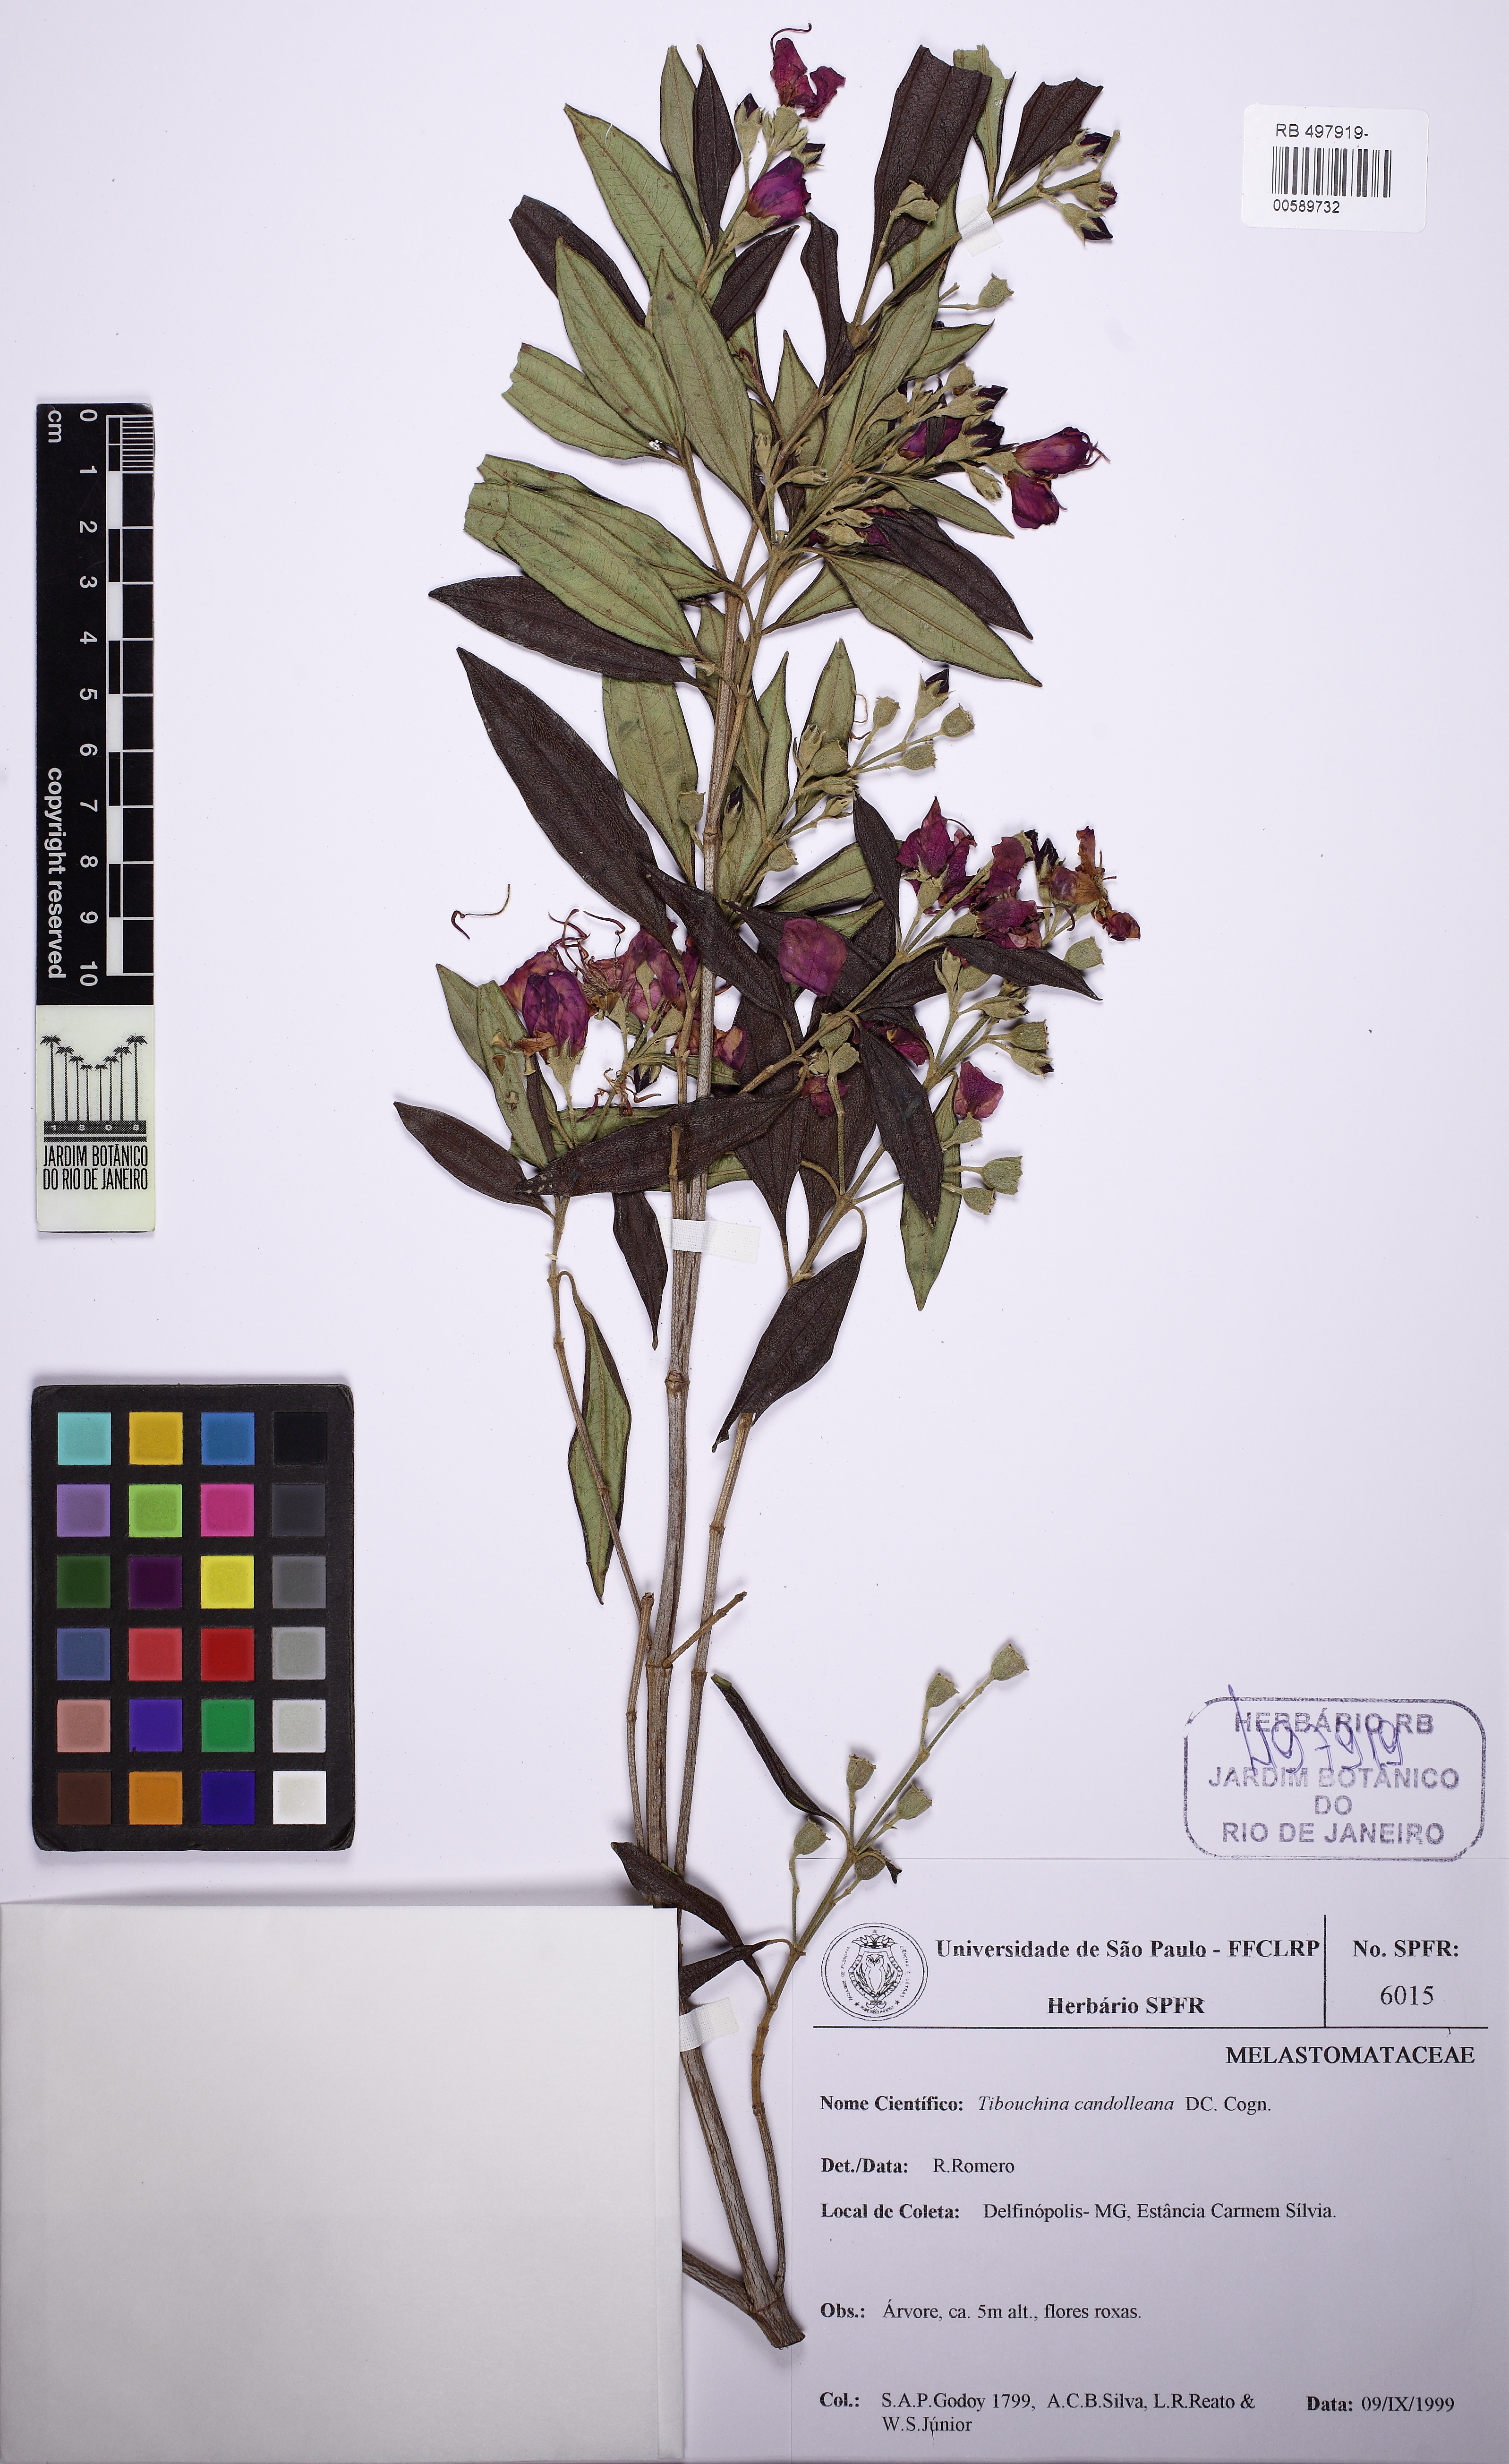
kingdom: Plantae
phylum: Tracheophyta
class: Magnoliopsida
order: Myrtales
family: Melastomataceae
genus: Pleroma
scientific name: Pleroma candolleanum
